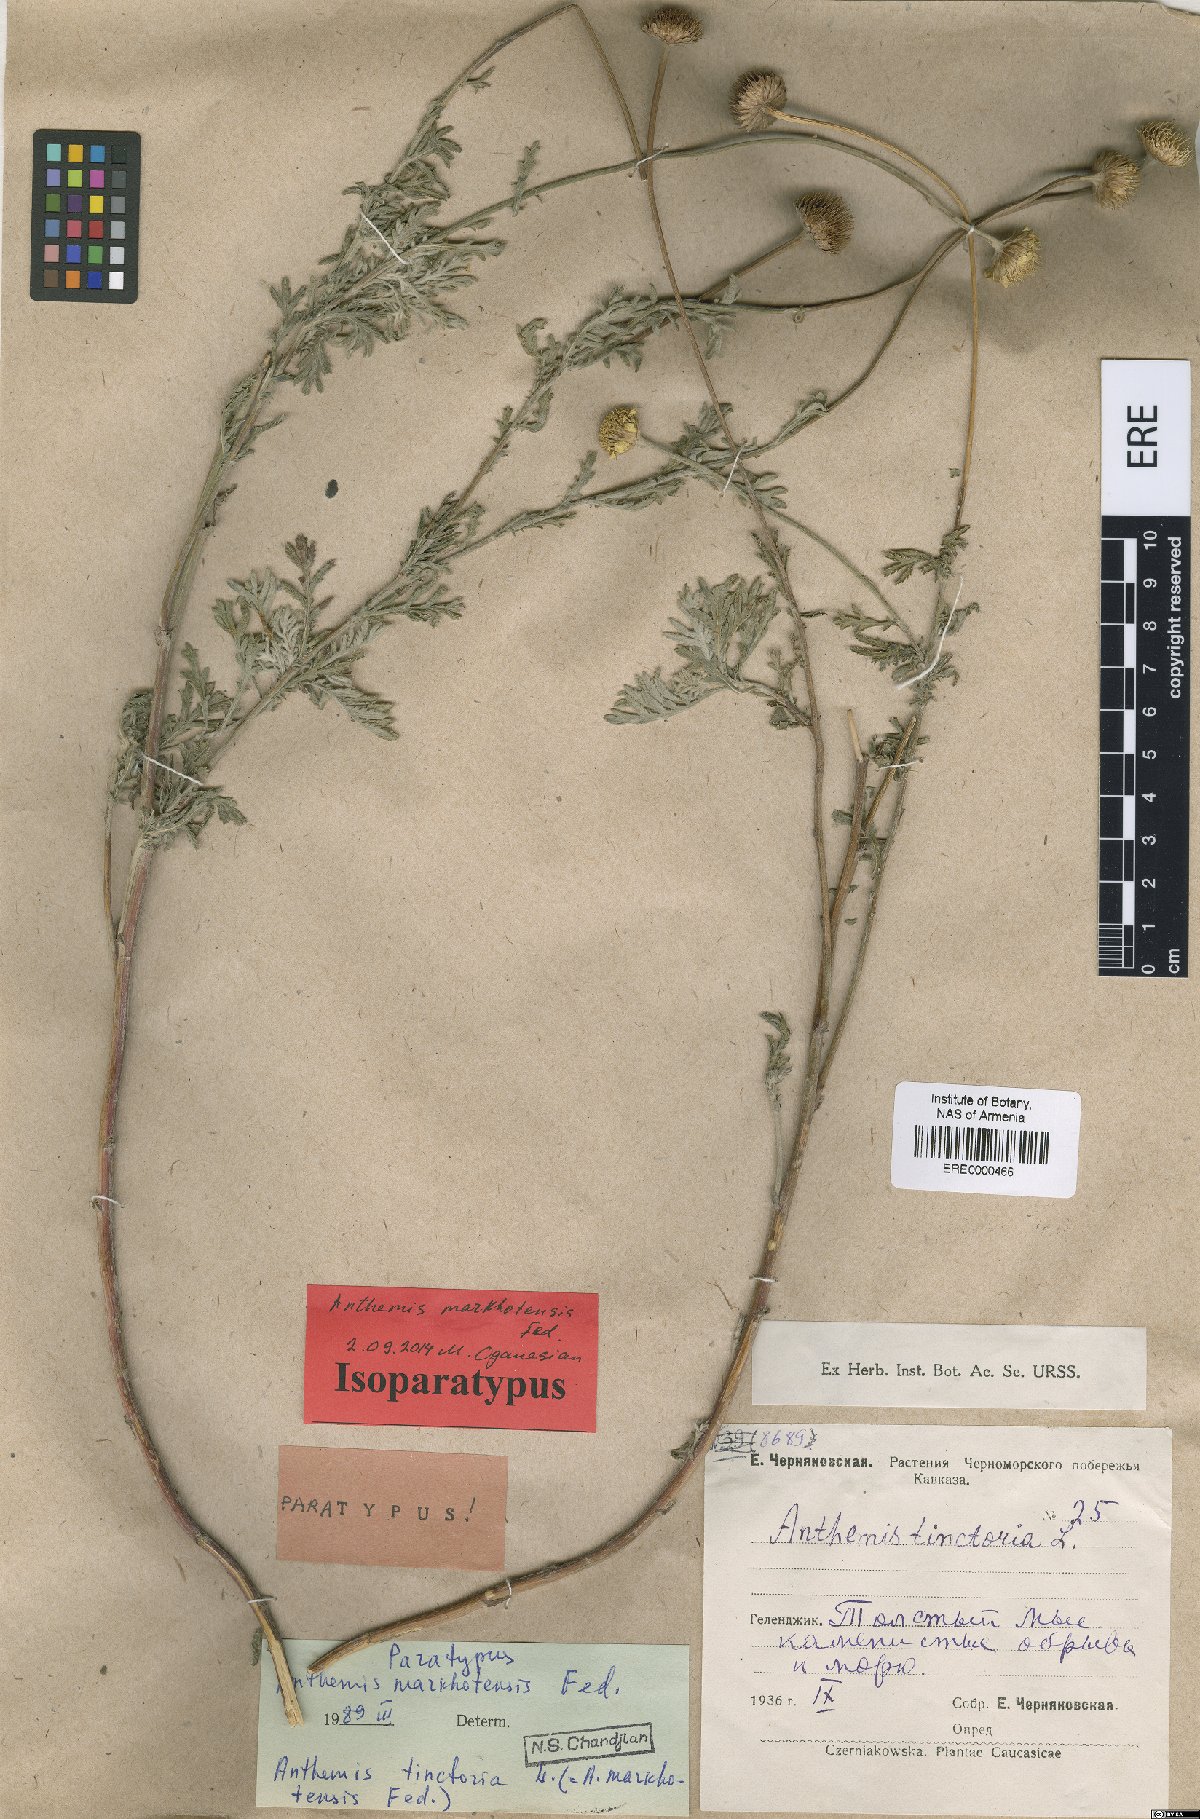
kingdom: Plantae
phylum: Tracheophyta
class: Magnoliopsida
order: Asterales
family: Asteraceae
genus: Cota
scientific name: Cota tinctoria
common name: Golden chamomile
